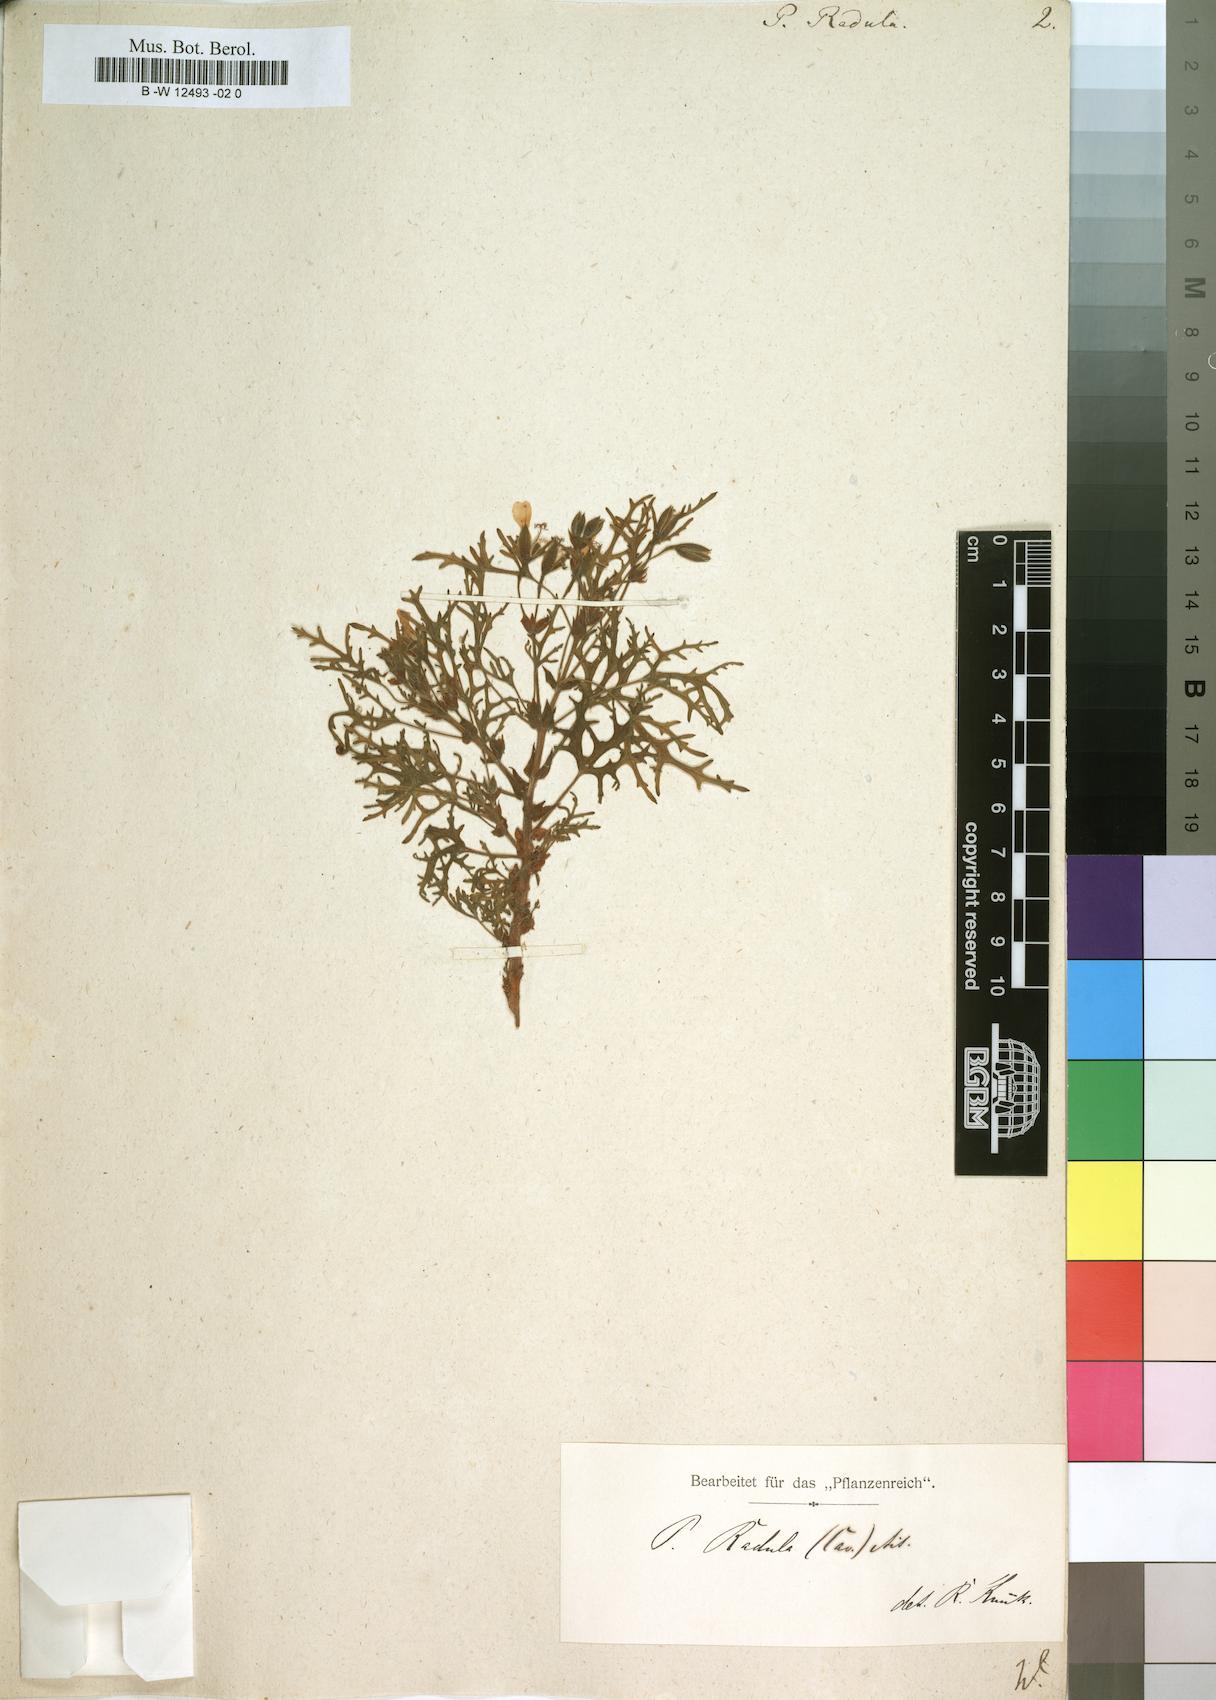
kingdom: Plantae
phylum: Tracheophyta
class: Magnoliopsida
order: Geraniales
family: Geraniaceae
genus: Pelargonium
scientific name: Pelargonium radens
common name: Rasp-leaf pelargonium
